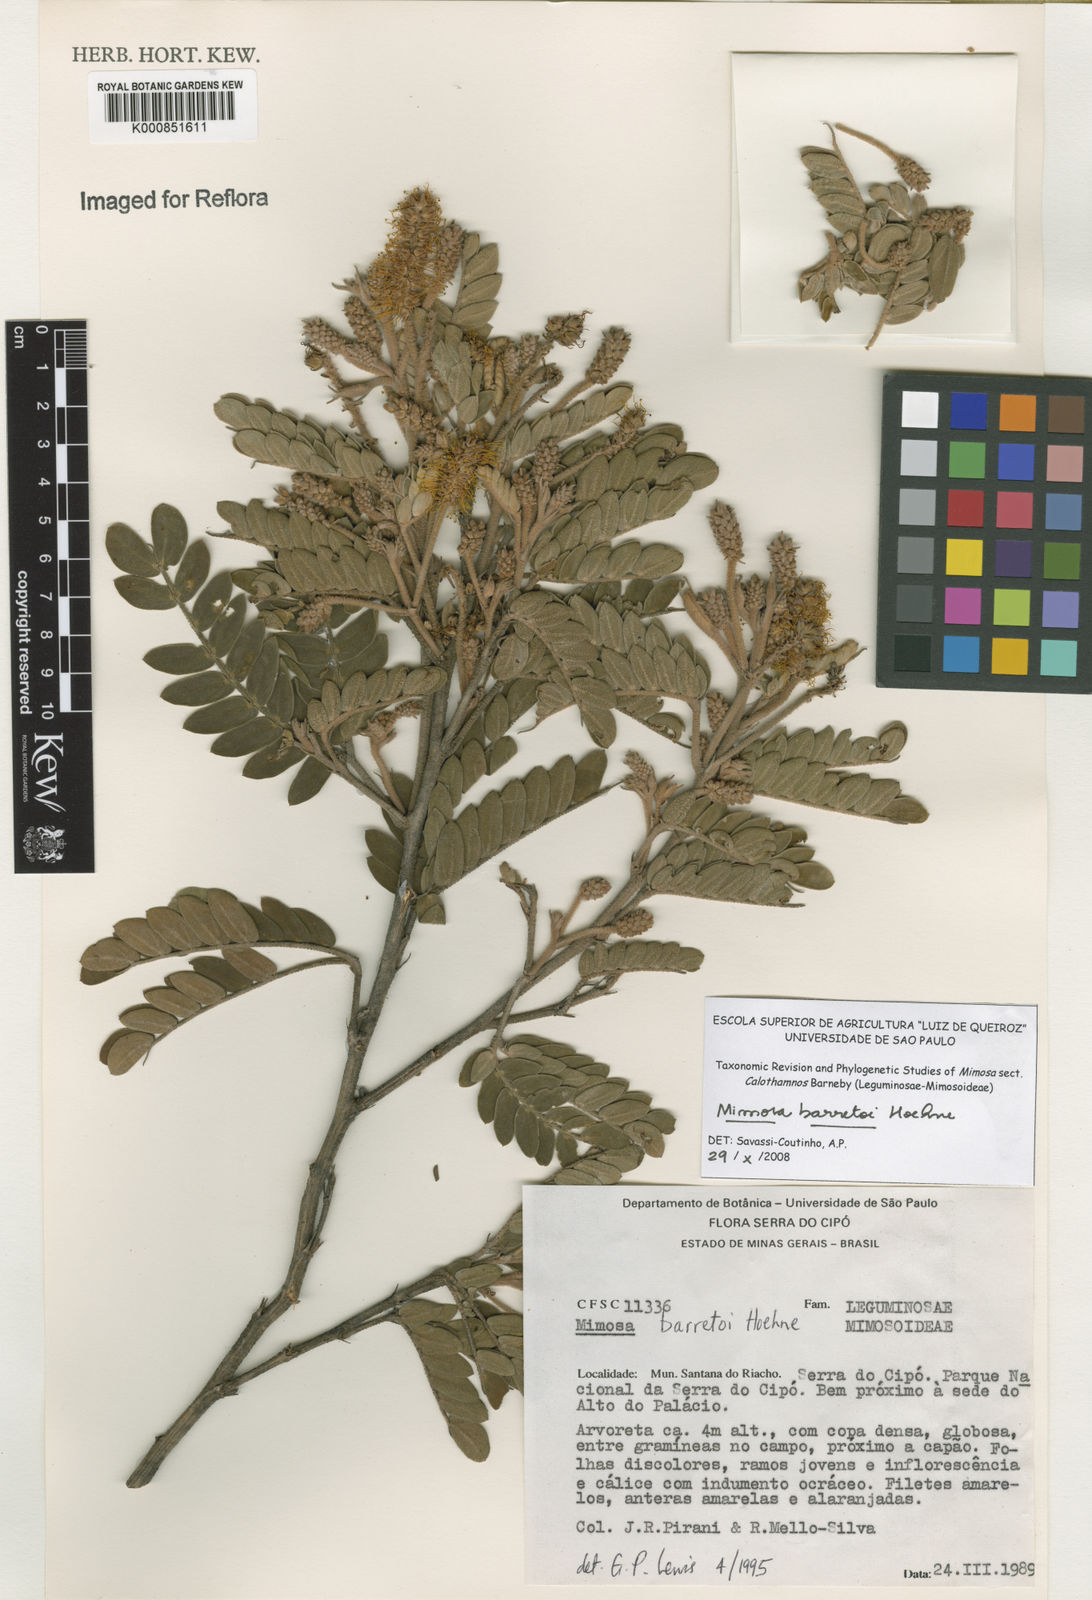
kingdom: Plantae
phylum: Tracheophyta
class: Magnoliopsida
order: Fabales
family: Fabaceae
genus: Mimosa
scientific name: Mimosa barretoi
